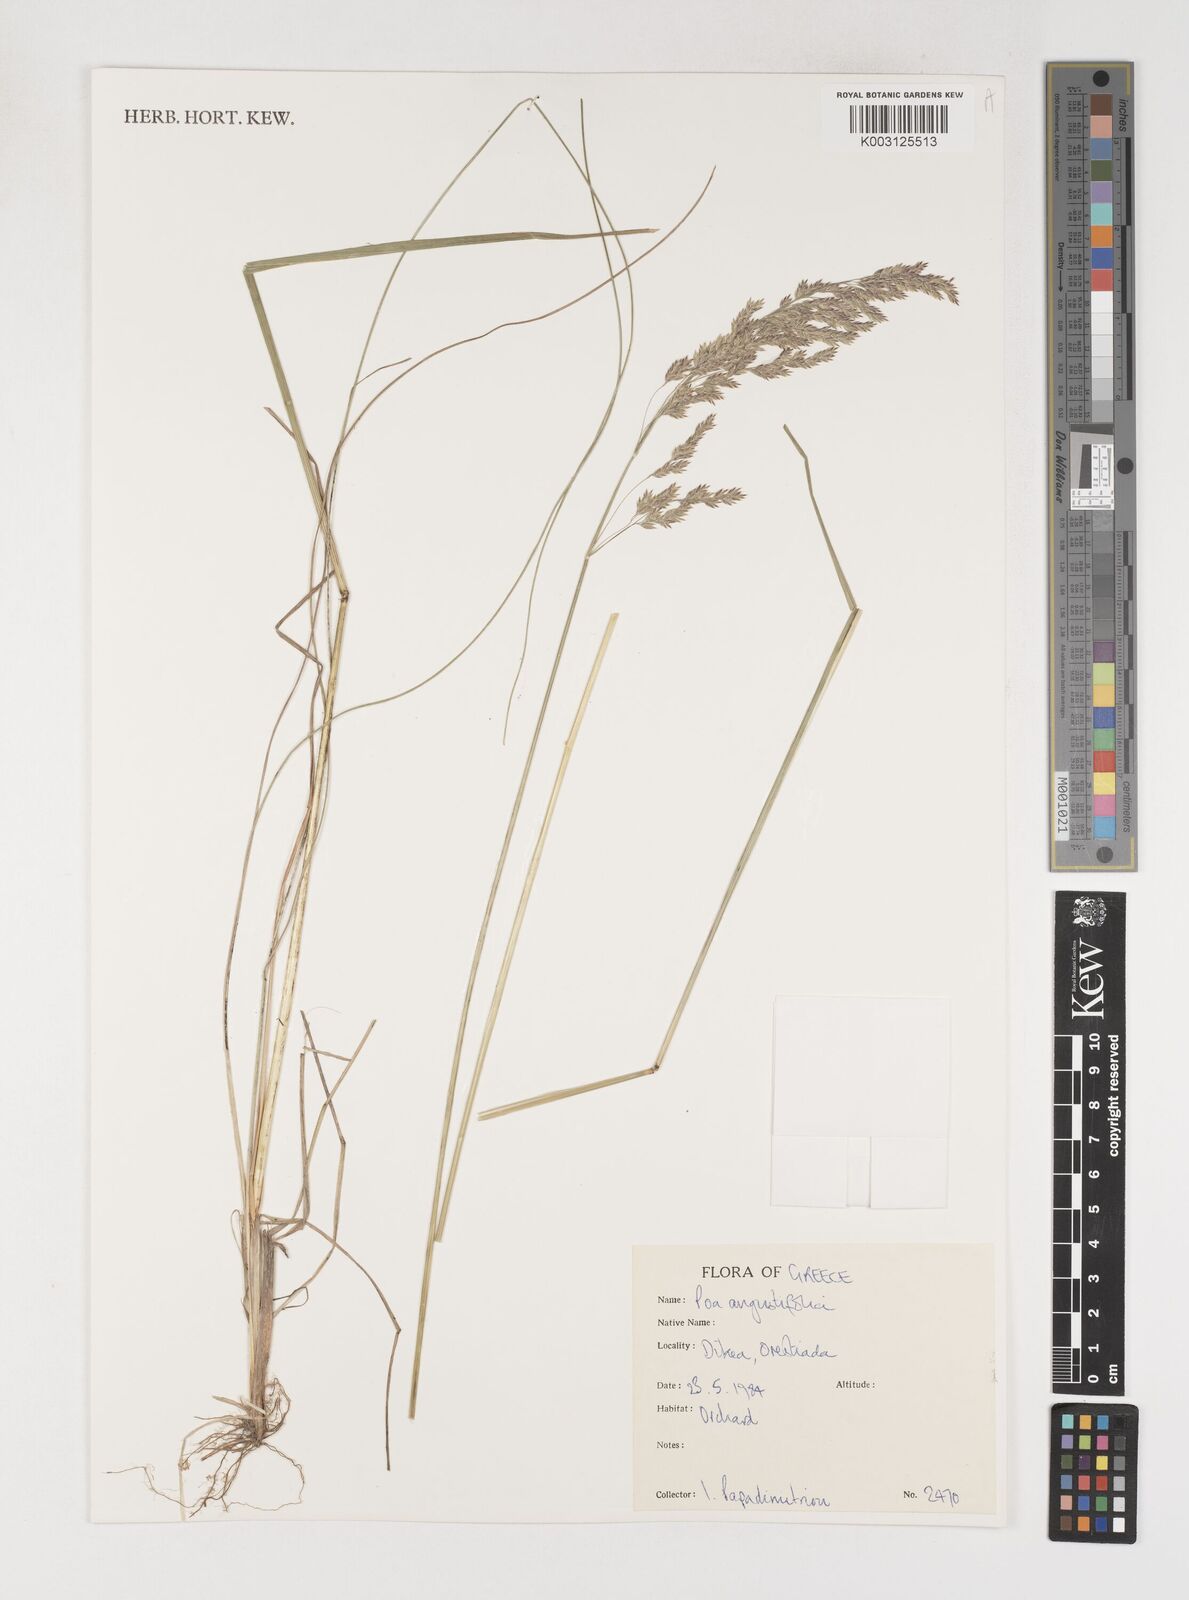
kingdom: Plantae
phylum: Tracheophyta
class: Liliopsida
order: Poales
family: Poaceae
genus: Poa
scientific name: Poa angustifolia
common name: Narrow-leaved meadow-grass
